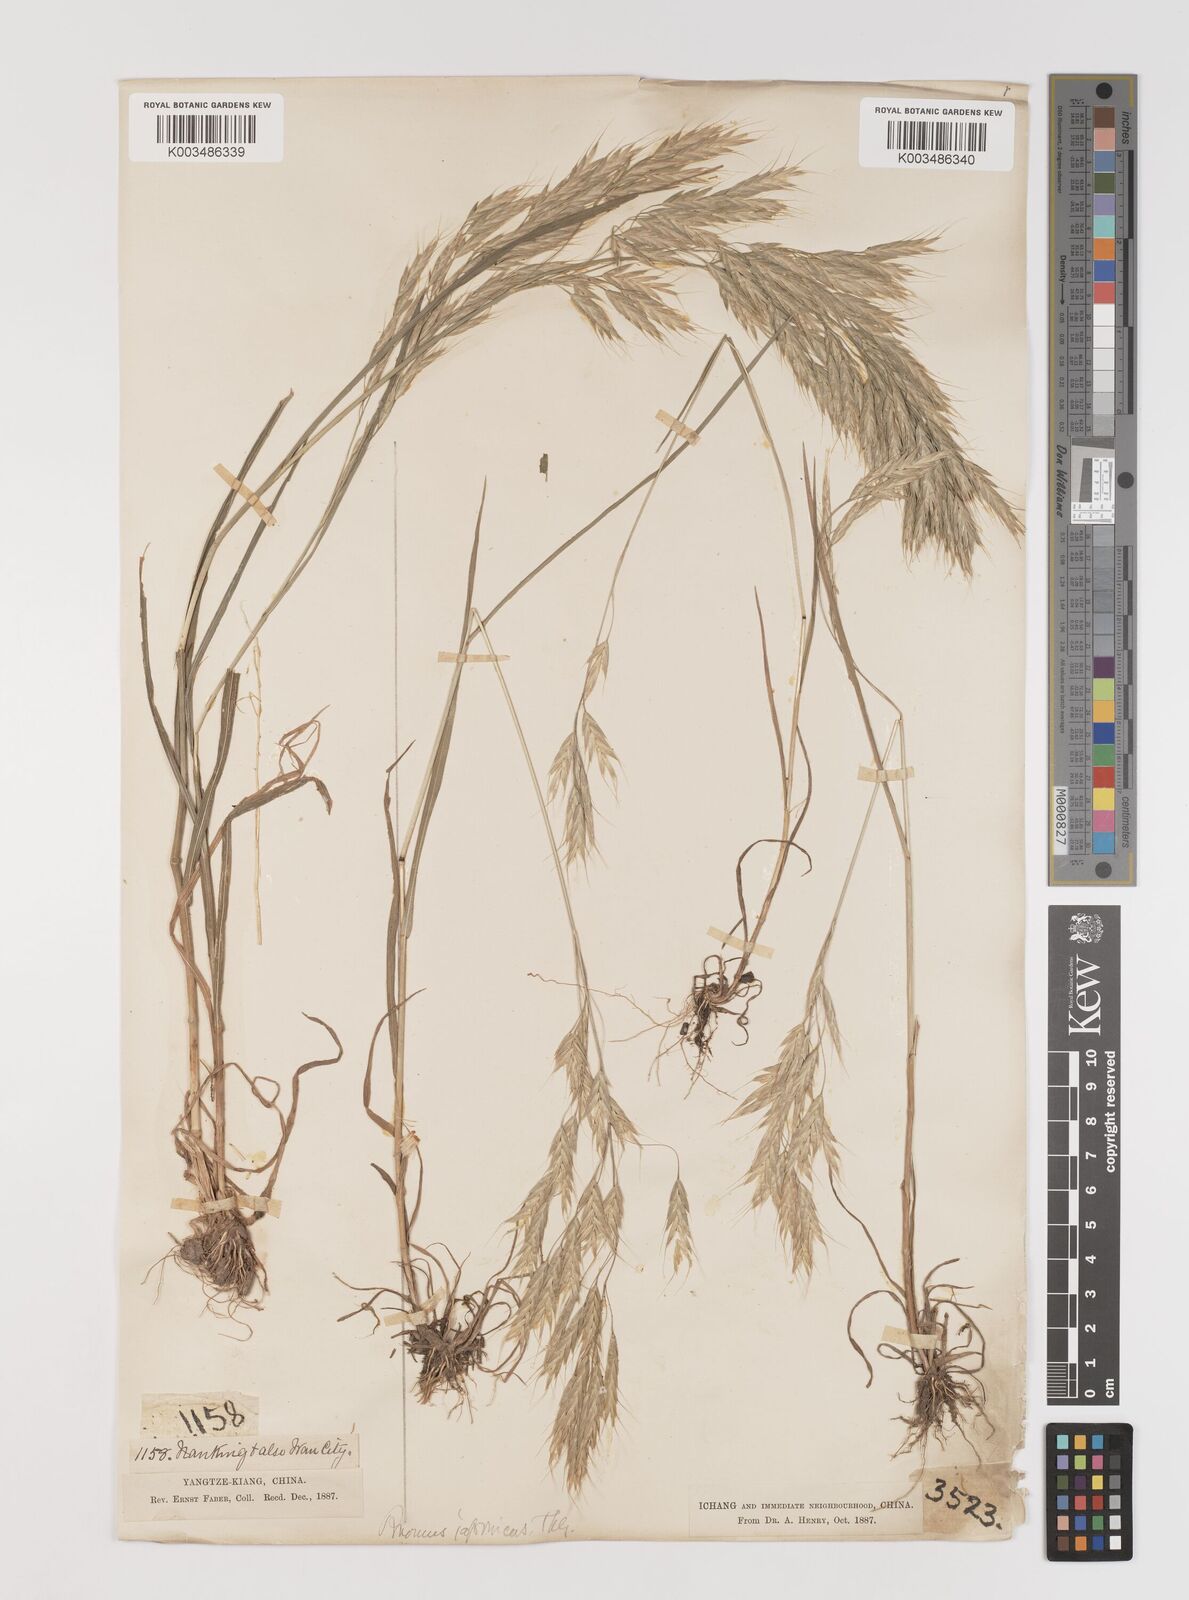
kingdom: Plantae
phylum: Tracheophyta
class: Liliopsida
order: Poales
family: Poaceae
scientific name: Poaceae
